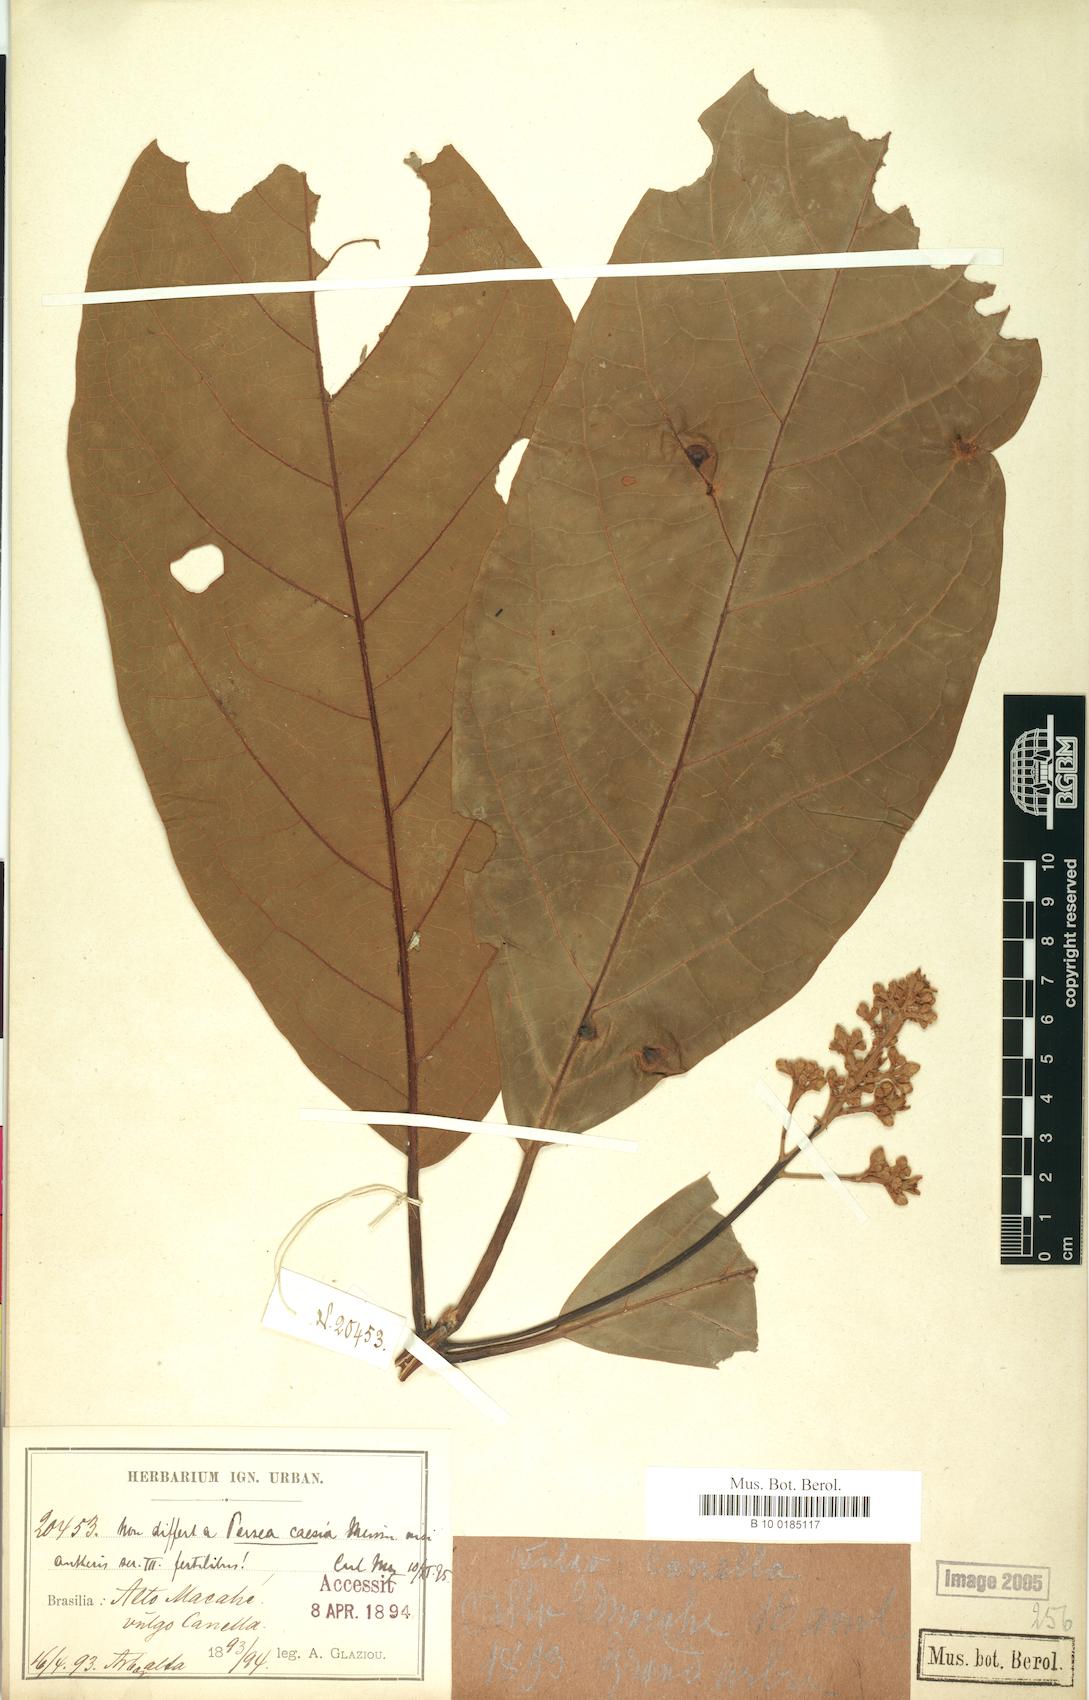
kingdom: Plantae
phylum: Tracheophyta
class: Magnoliopsida
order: Laurales
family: Lauraceae
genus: Persea
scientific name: Persea caesia
